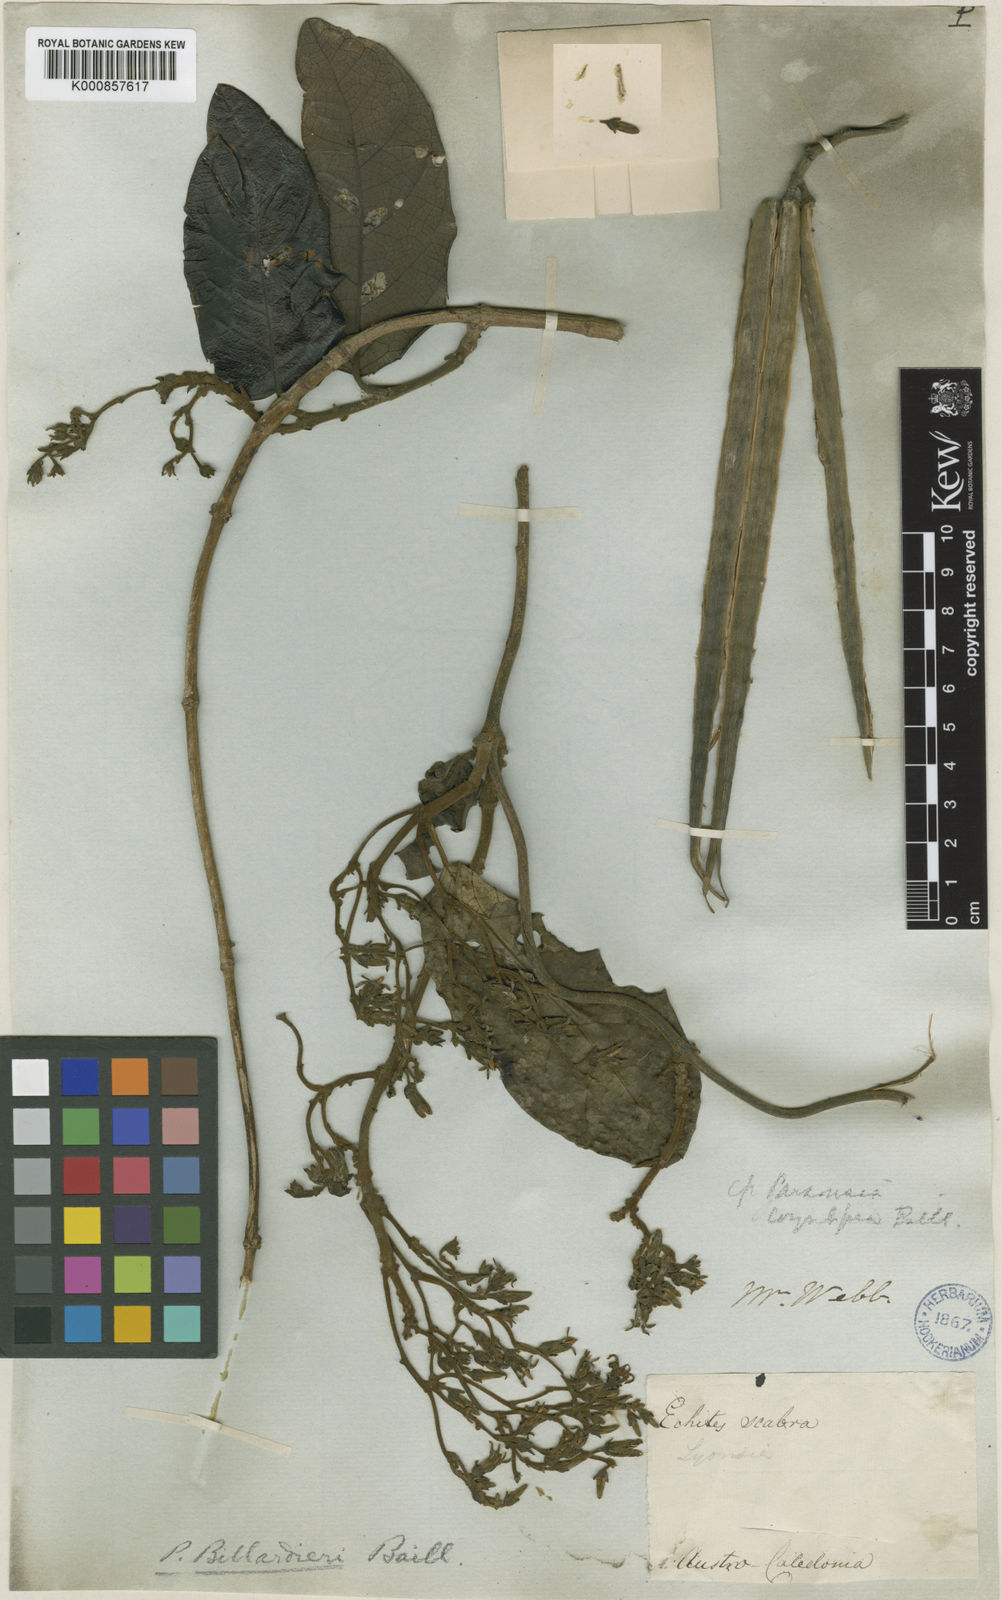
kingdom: Plantae
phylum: Tracheophyta
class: Magnoliopsida
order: Gentianales
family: Apocynaceae
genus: Parsonsia
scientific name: Parsonsia scabra
